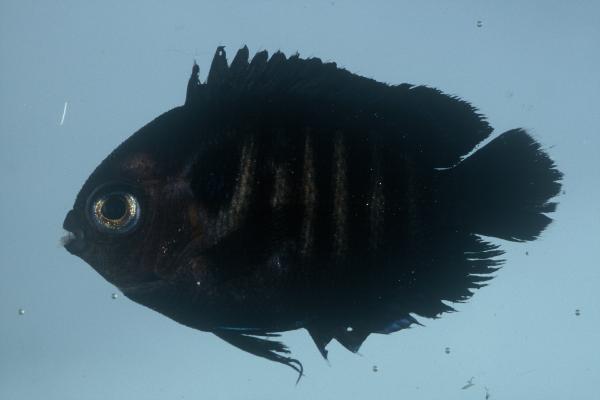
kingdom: Animalia
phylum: Chordata
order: Perciformes
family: Pomacanthidae
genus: Centropyge
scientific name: Centropyge multispinis
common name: Many-spined angelfish
